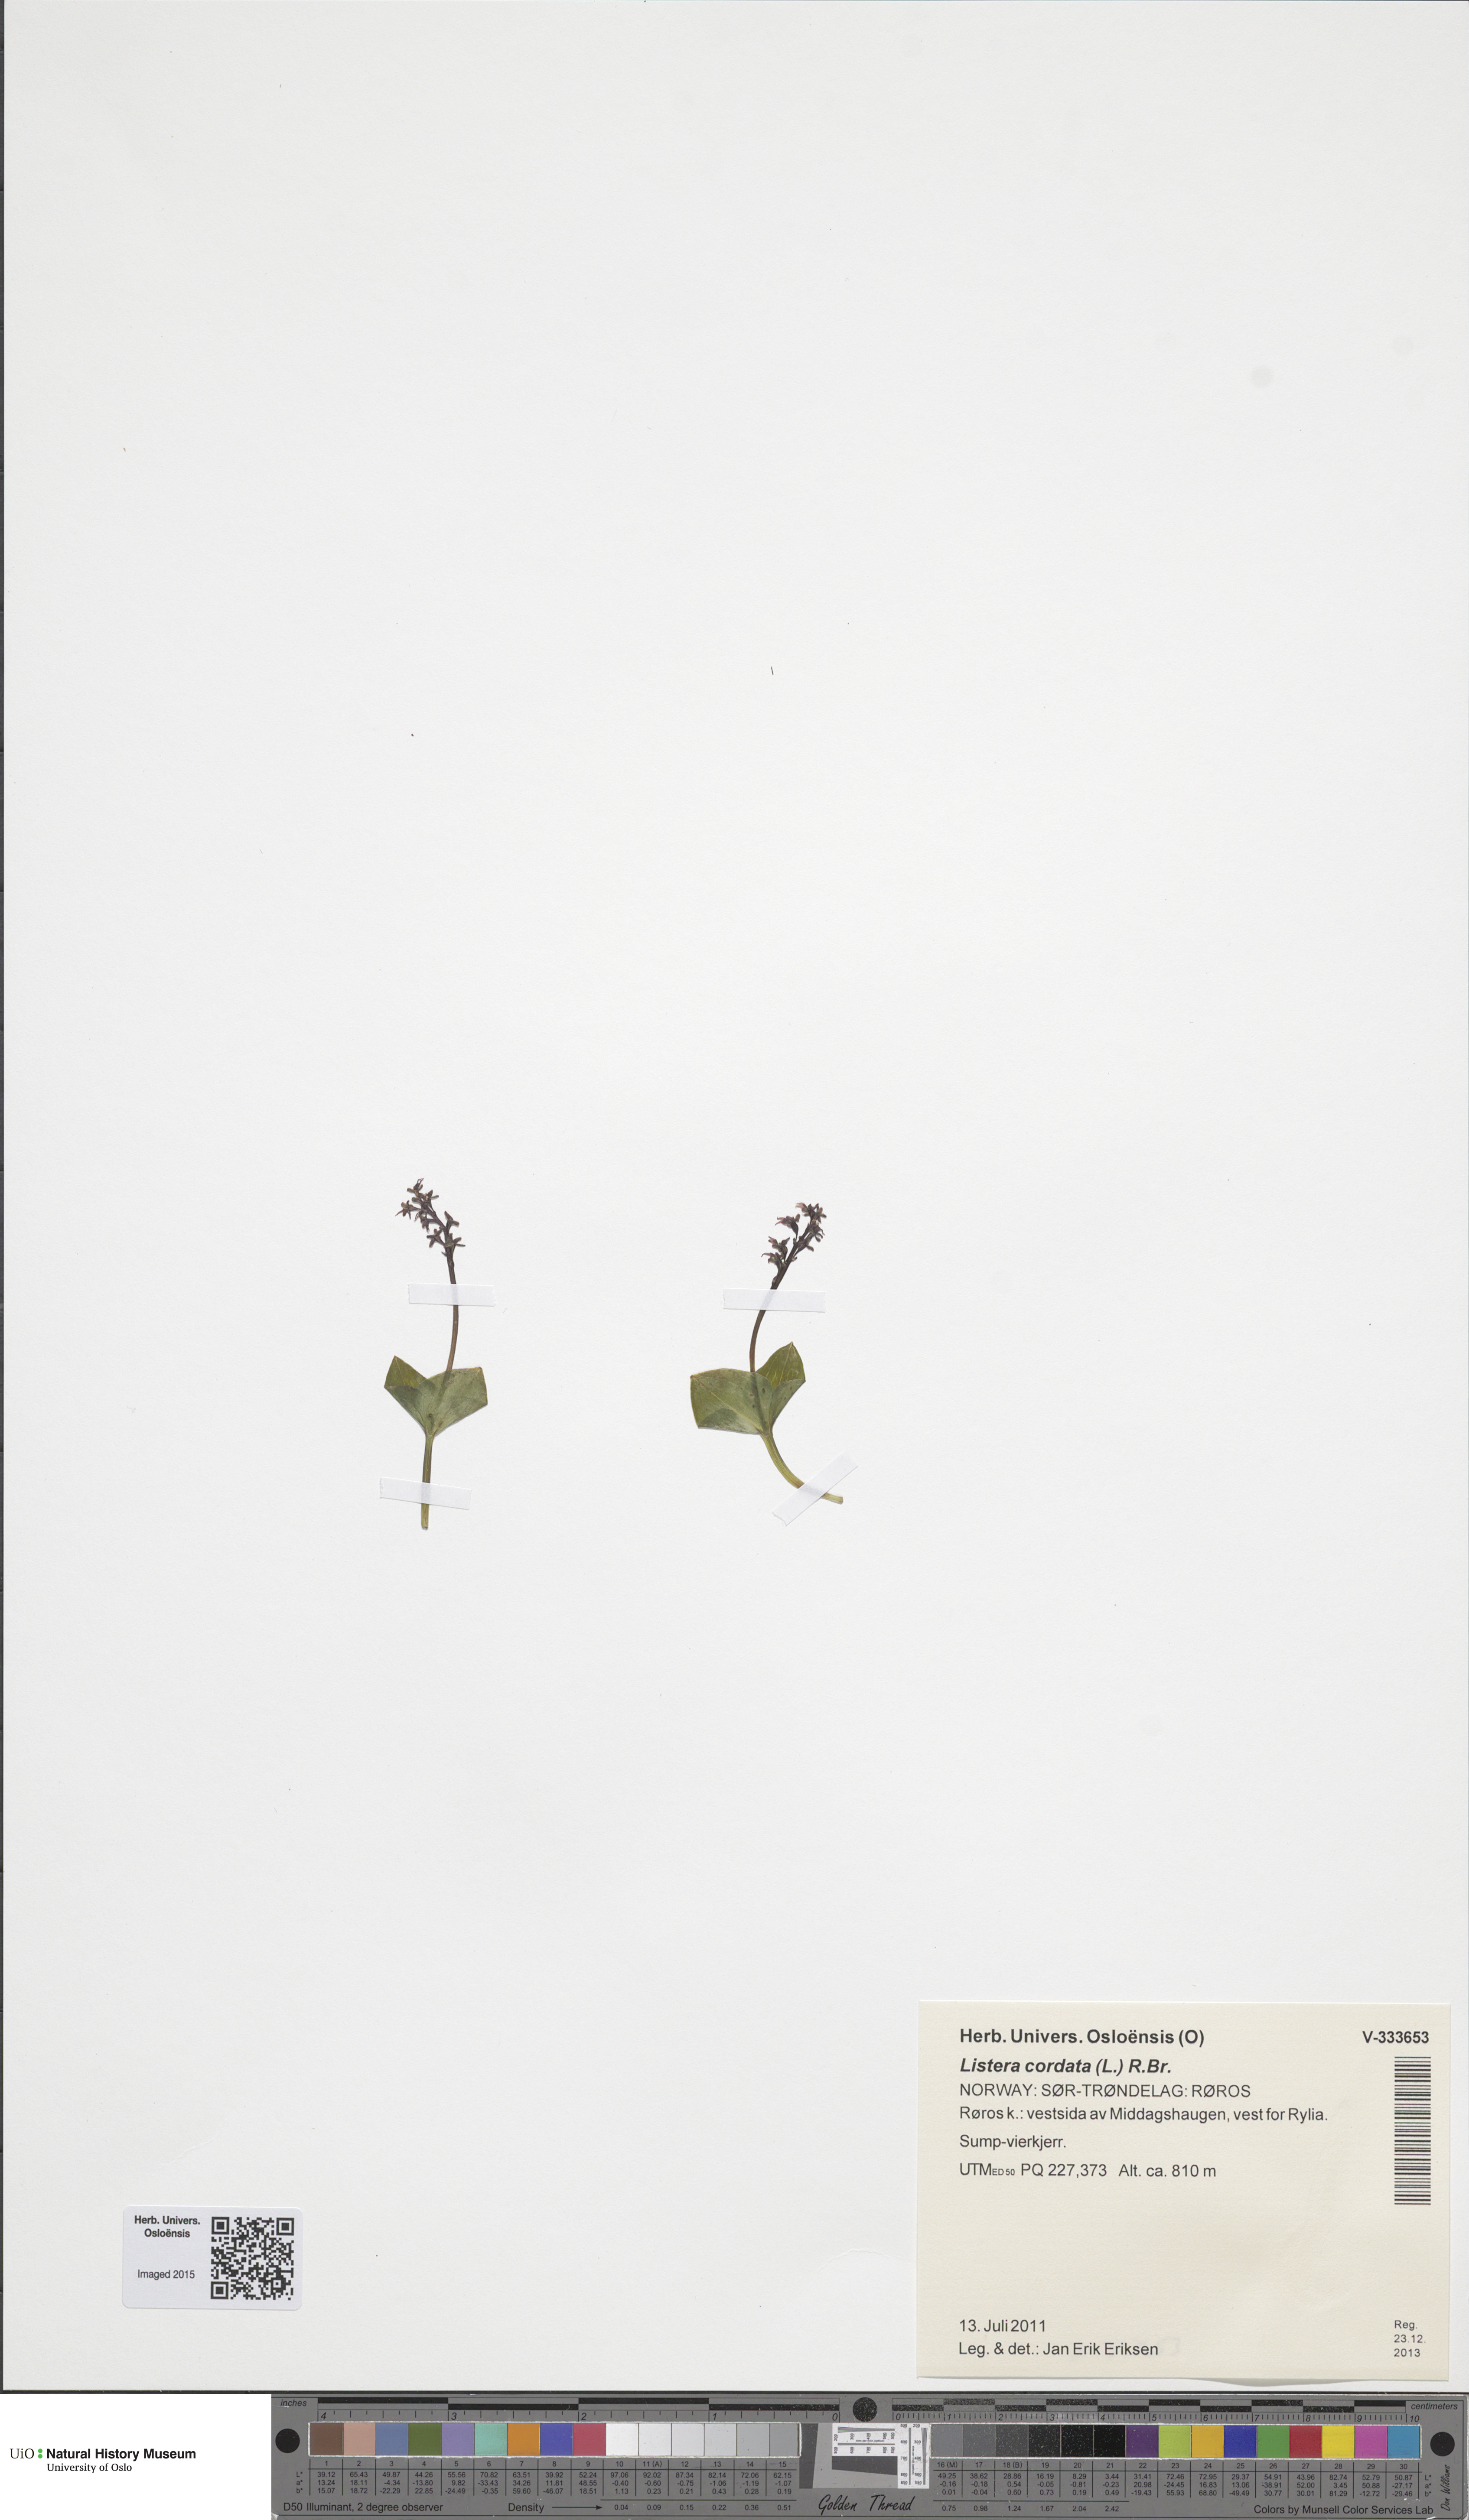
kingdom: Plantae
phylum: Tracheophyta
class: Liliopsida
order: Asparagales
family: Orchidaceae
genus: Neottia
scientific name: Neottia cordata
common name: Lesser twayblade
